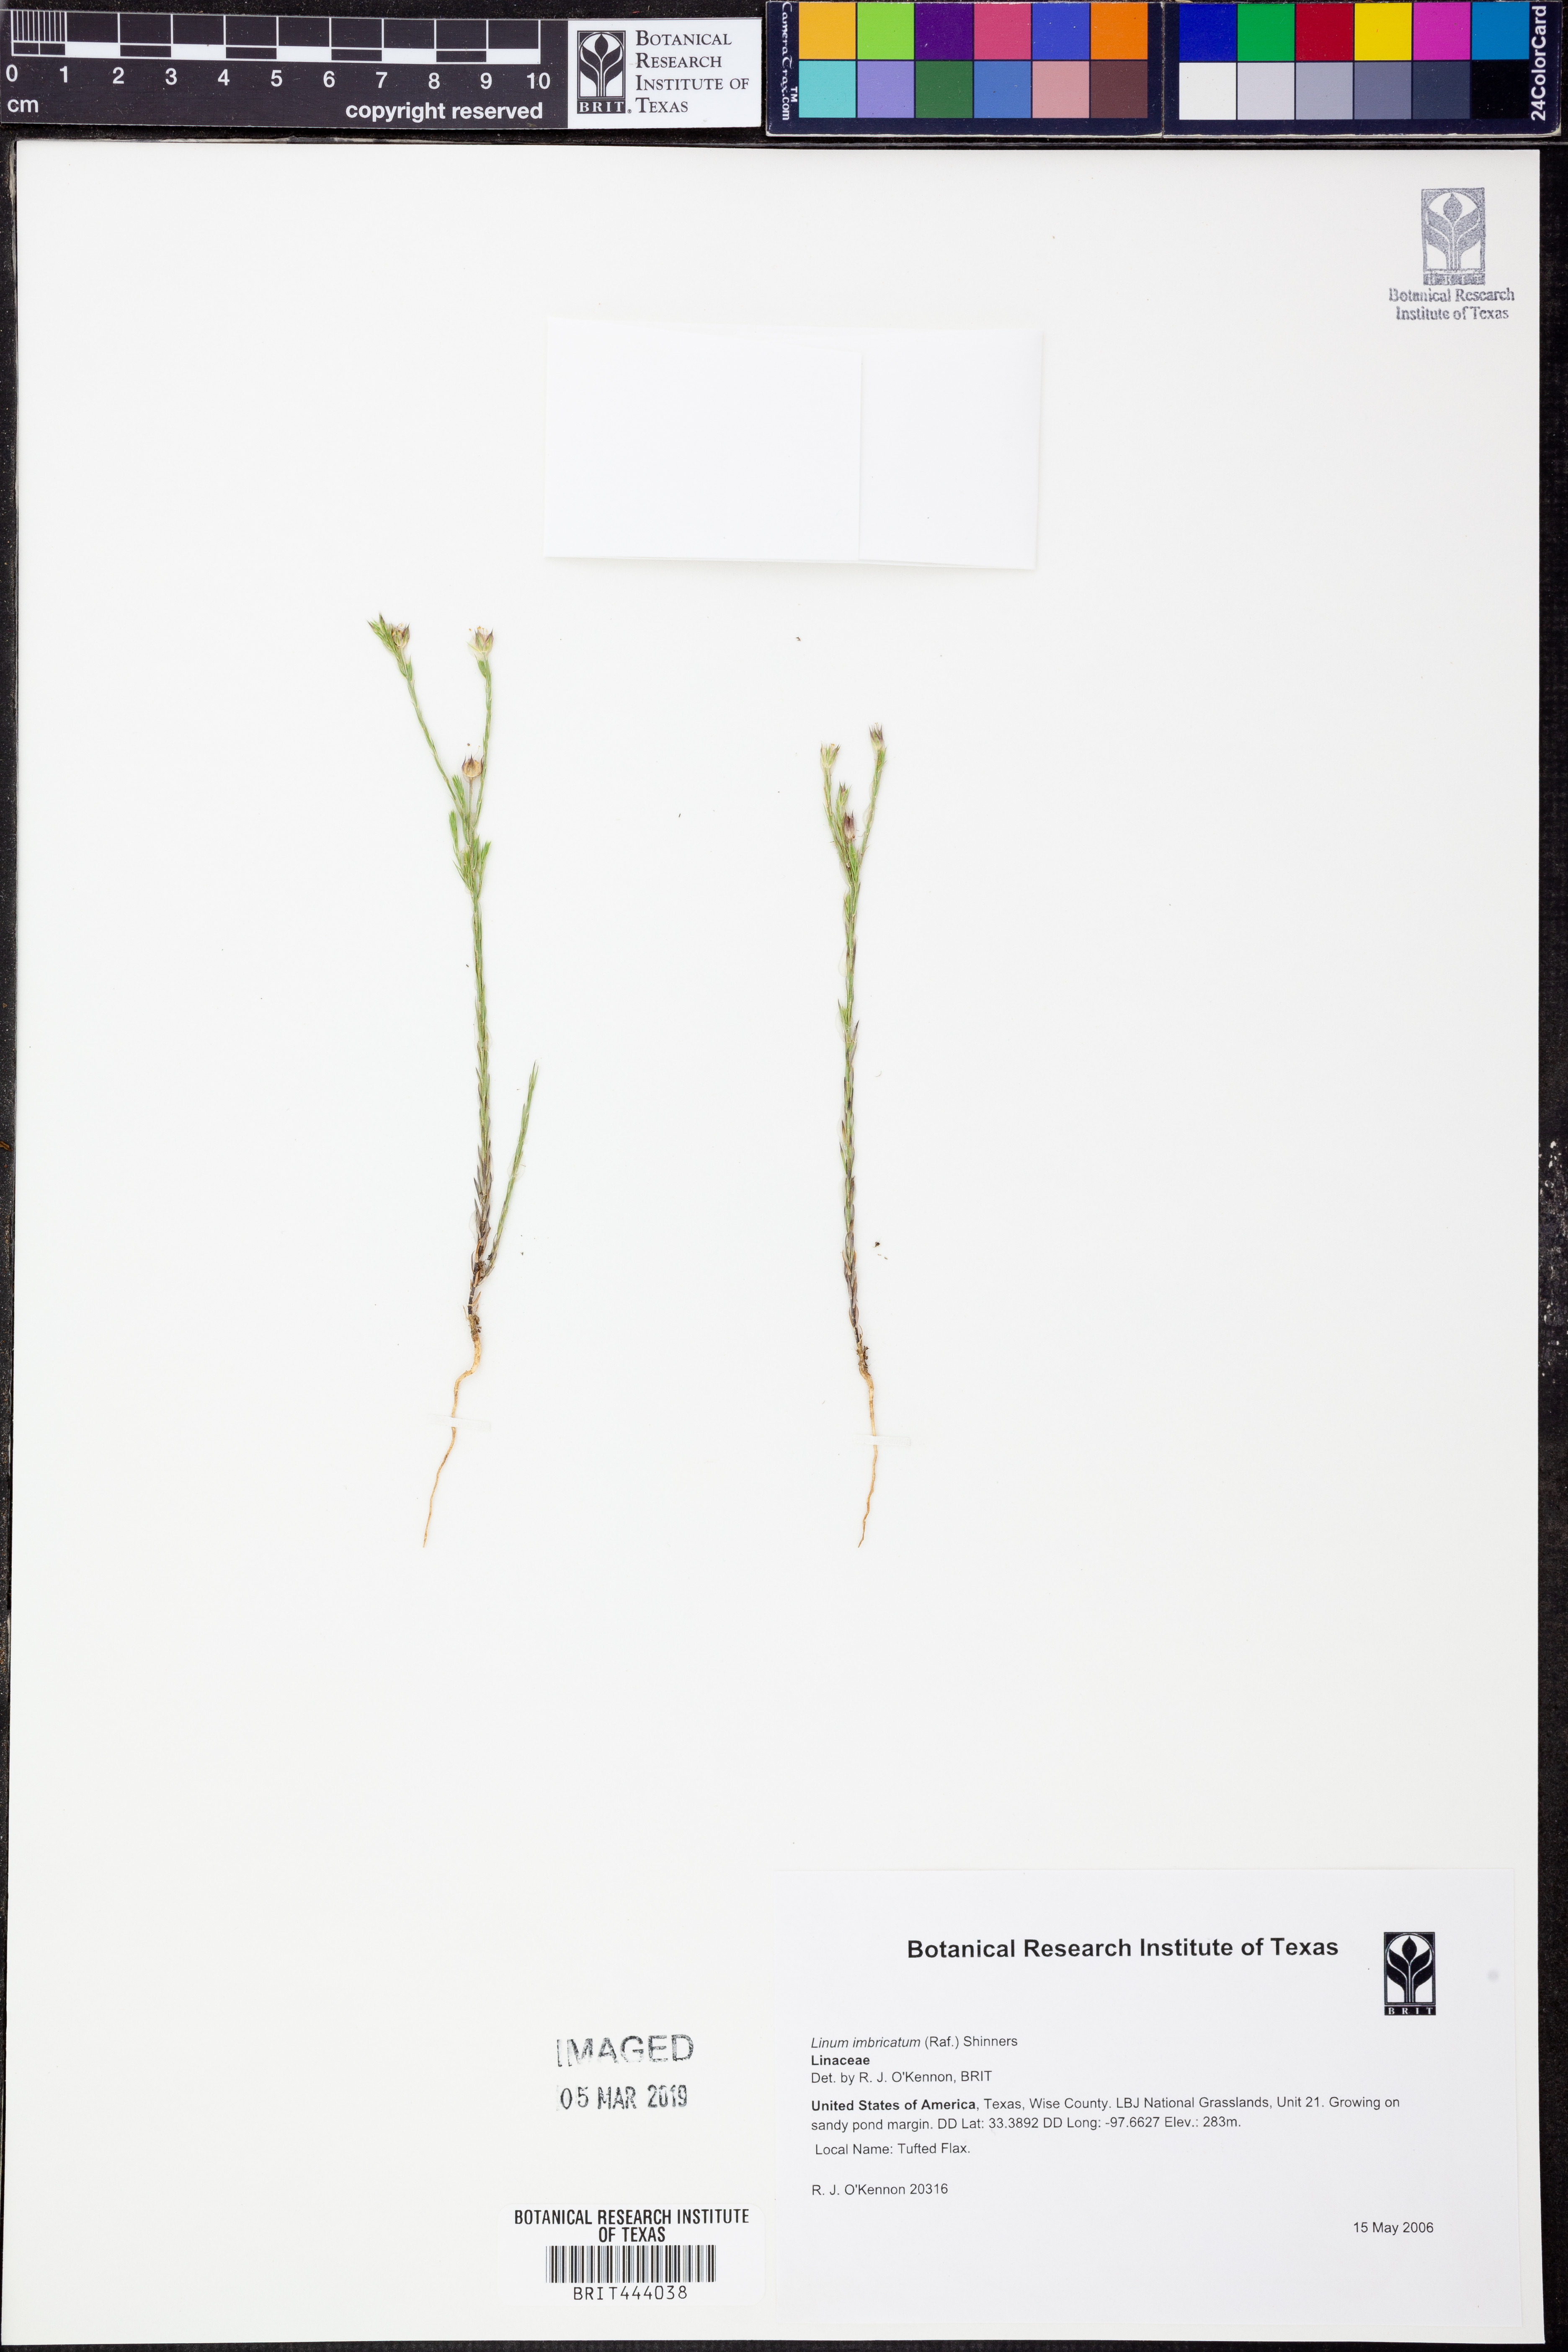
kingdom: Plantae
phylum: Tracheophyta
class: Magnoliopsida
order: Malpighiales
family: Linaceae
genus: Linum
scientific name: Linum imbricatum
